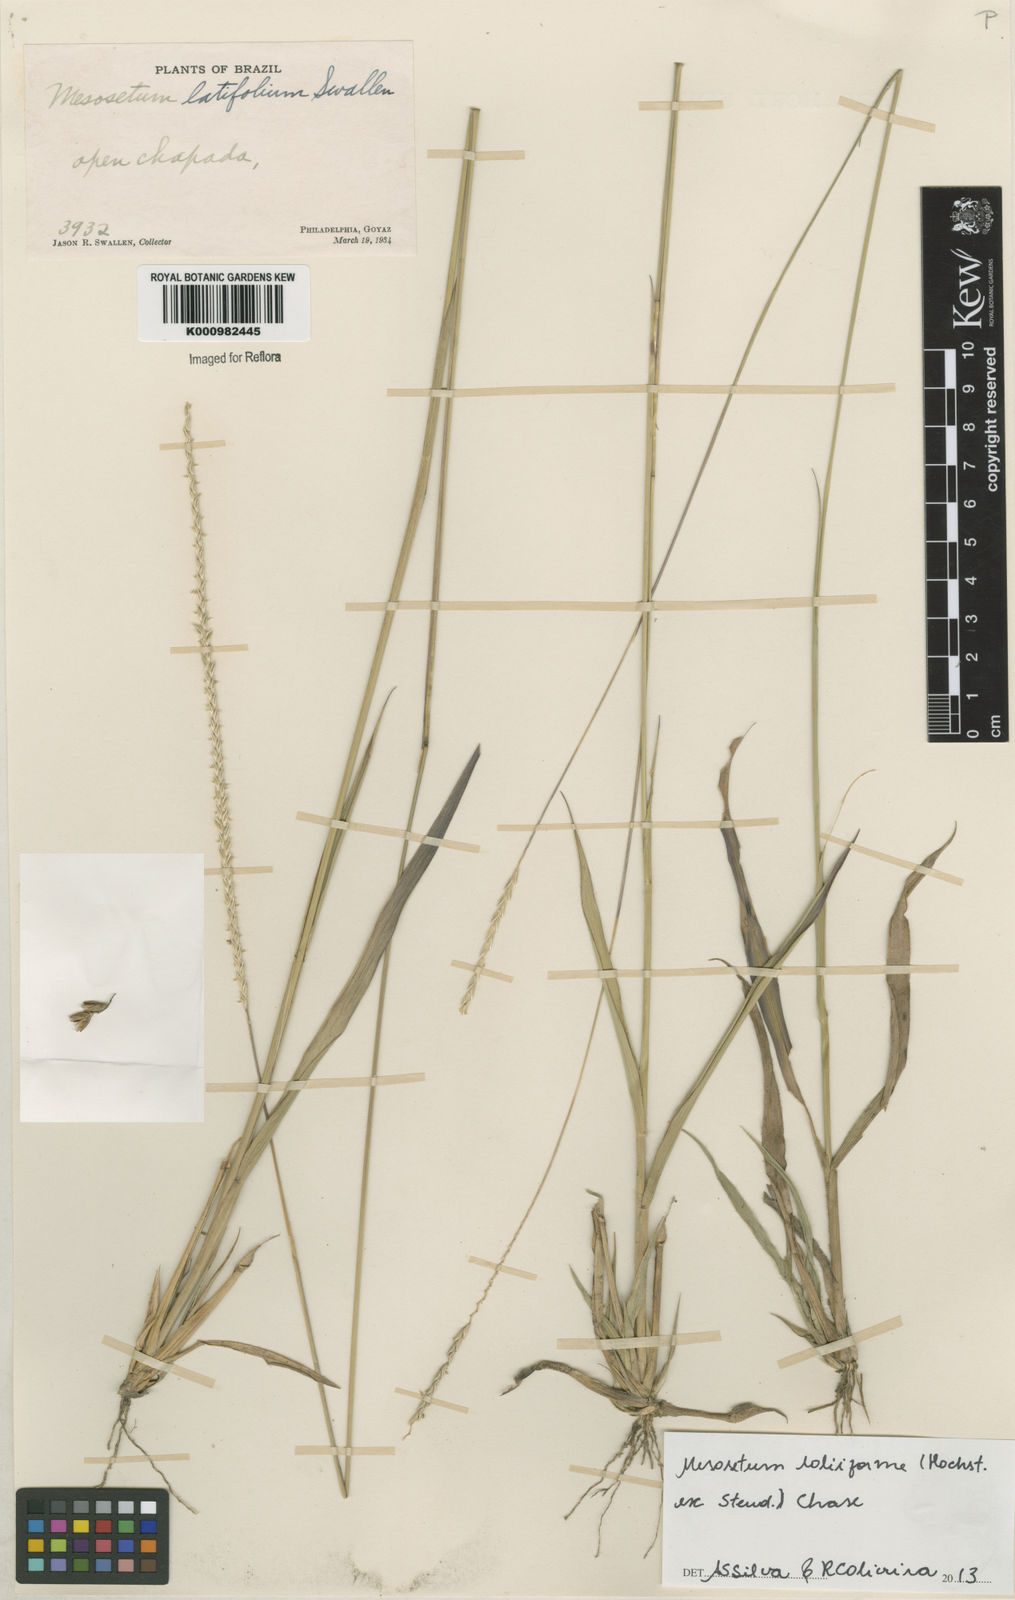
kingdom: Plantae
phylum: Tracheophyta
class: Liliopsida
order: Poales
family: Poaceae
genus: Mesosetum
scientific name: Mesosetum
